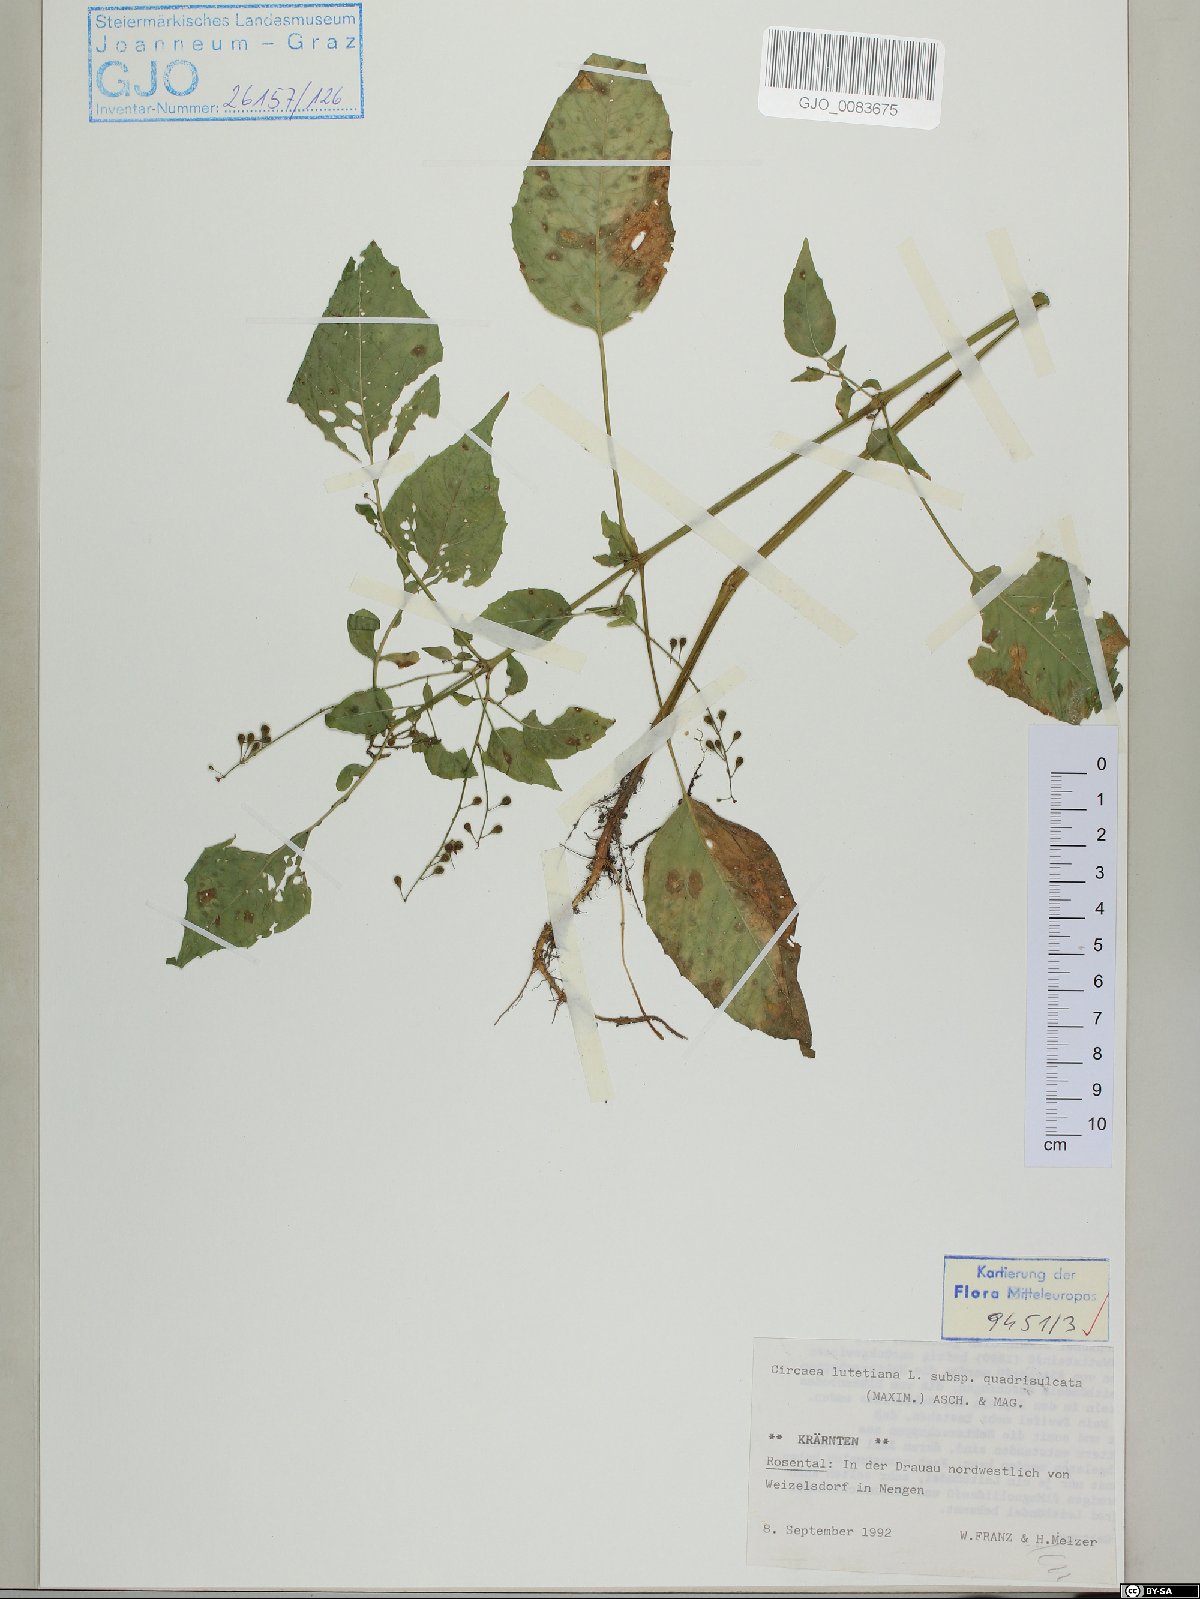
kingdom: Plantae
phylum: Tracheophyta
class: Magnoliopsida
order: Myrtales
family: Onagraceae
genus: Circaea
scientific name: Circaea canadensis
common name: Broad-leaved enchanter's nightshade
